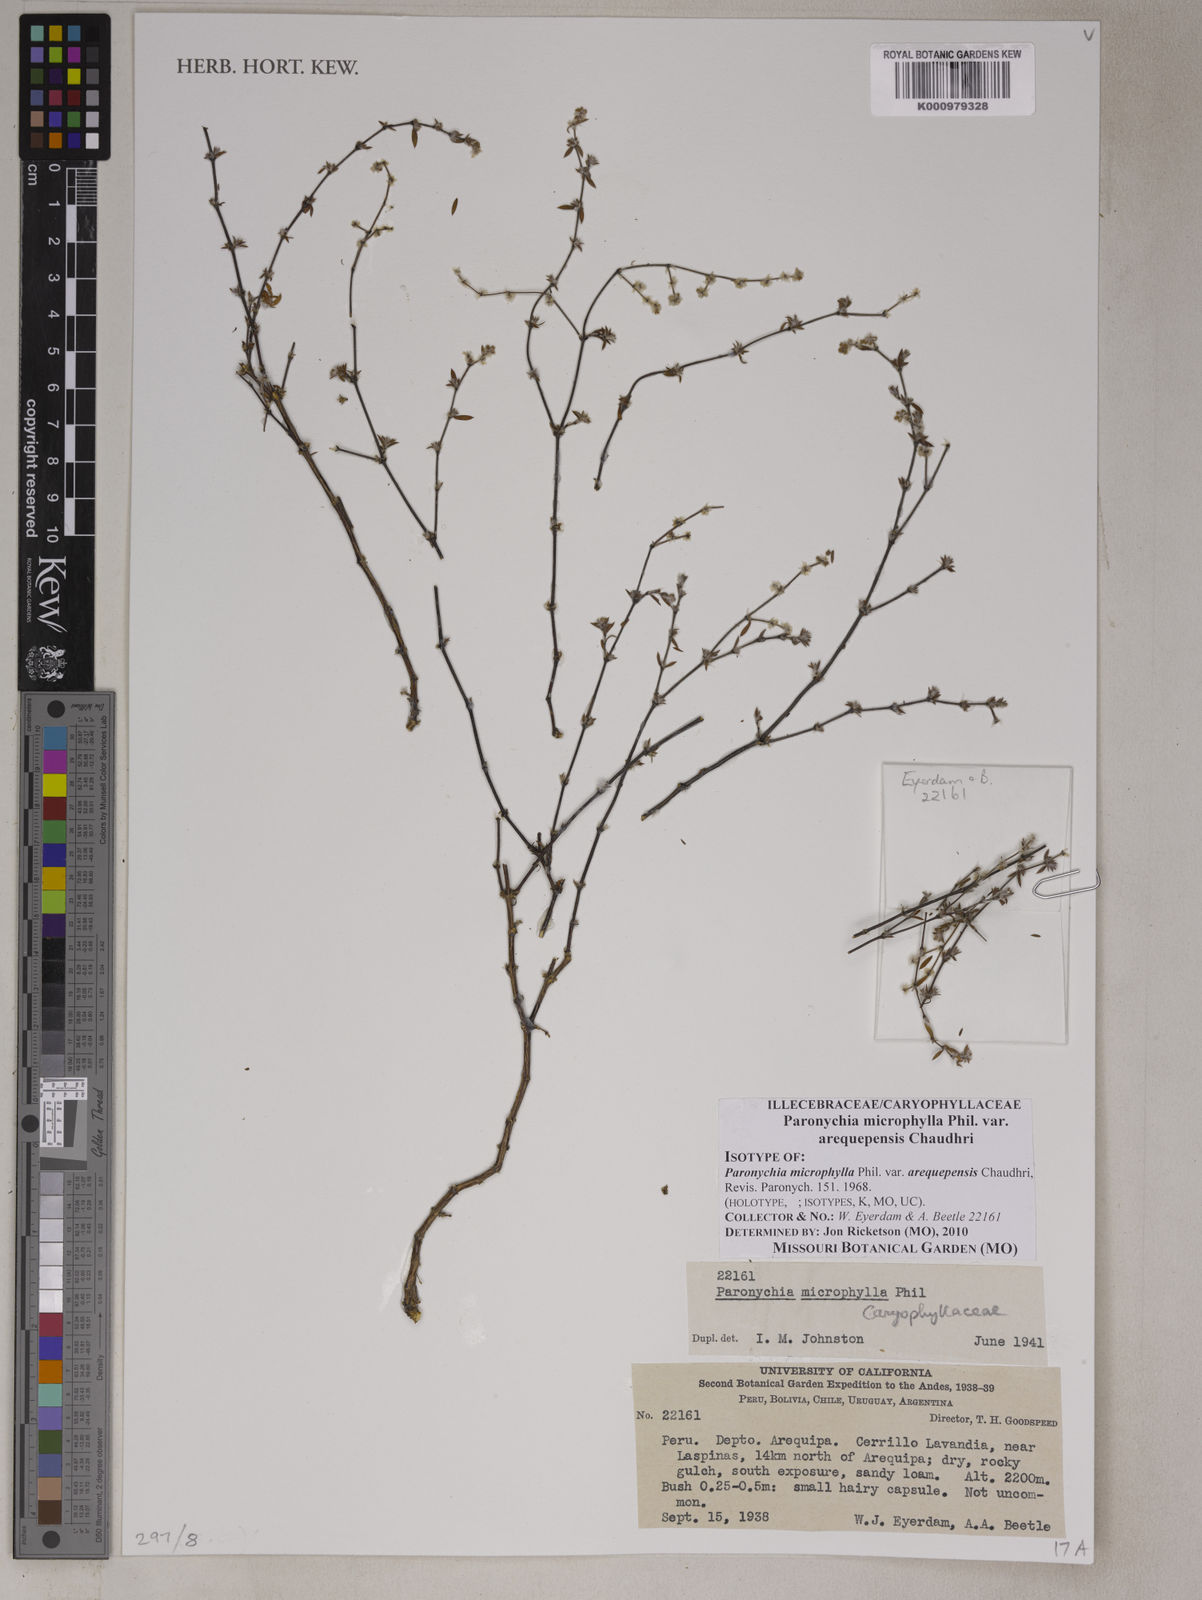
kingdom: Plantae
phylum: Tracheophyta
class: Magnoliopsida
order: Caryophyllales
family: Caryophyllaceae
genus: Paronychia
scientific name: Paronychia microphylla
